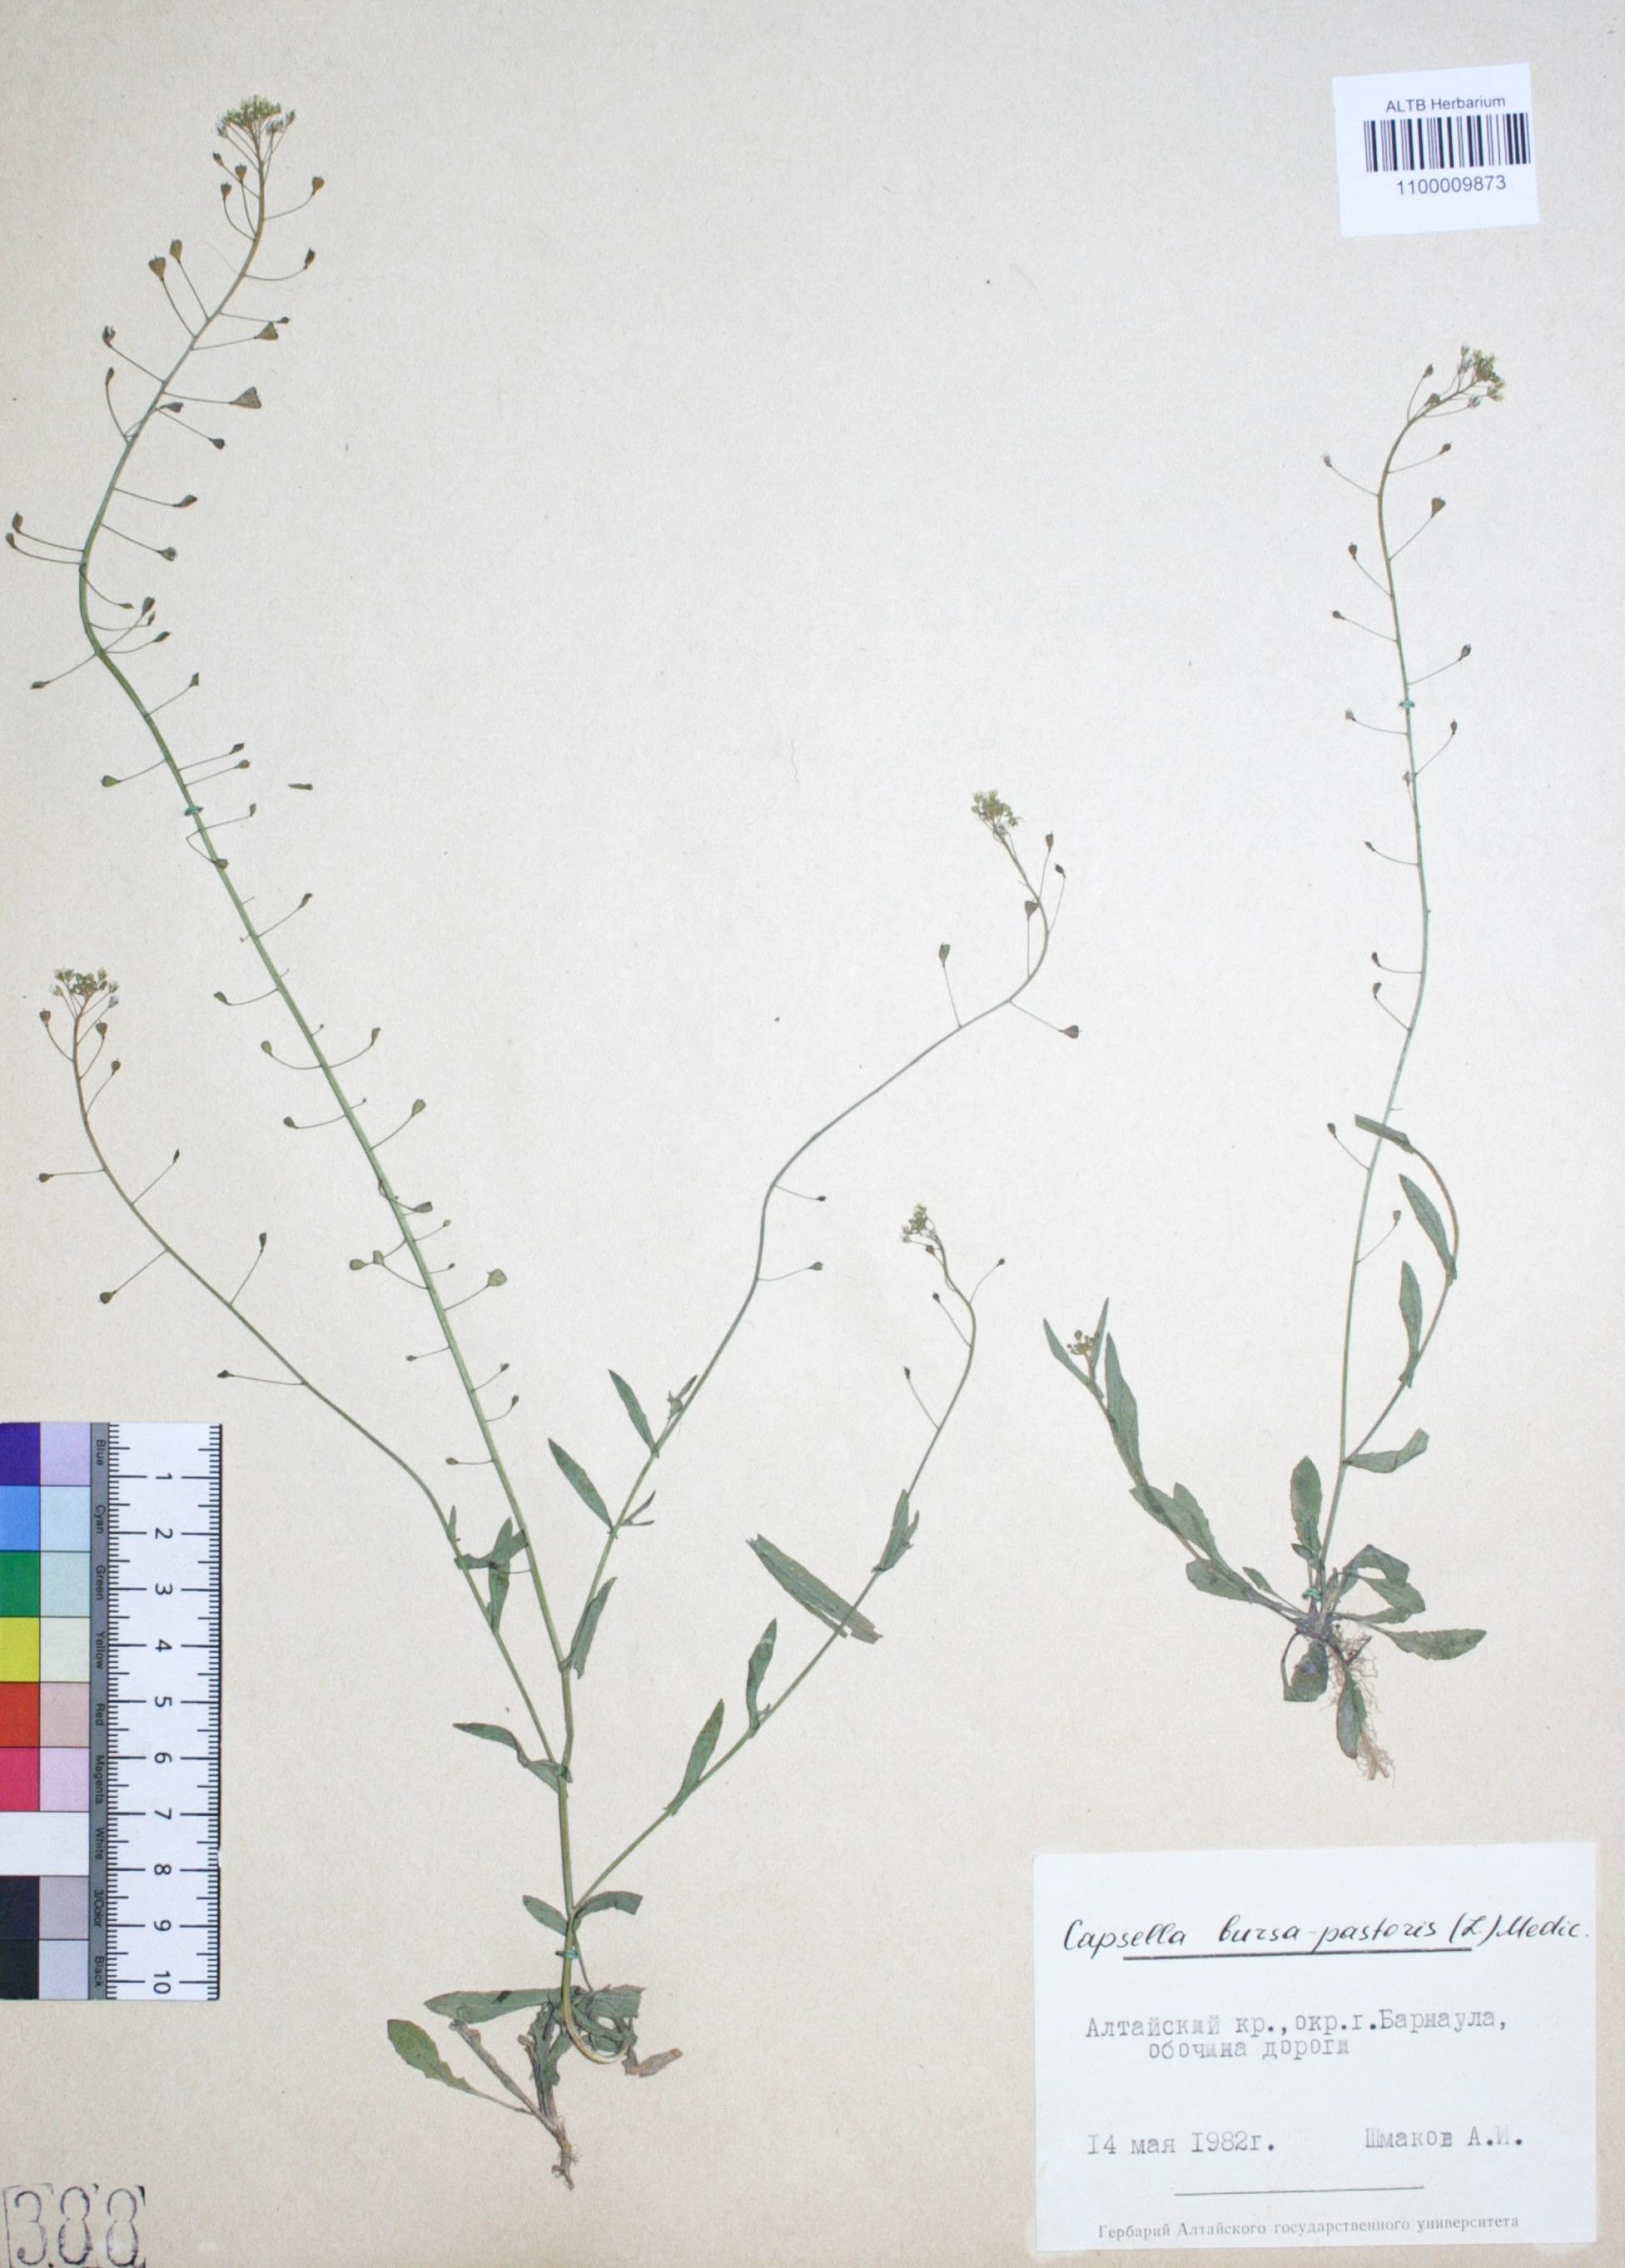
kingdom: Plantae
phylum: Tracheophyta
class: Magnoliopsida
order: Brassicales
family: Brassicaceae
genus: Capsella
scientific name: Capsella bursa-pastoris
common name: Shepherd's purse
